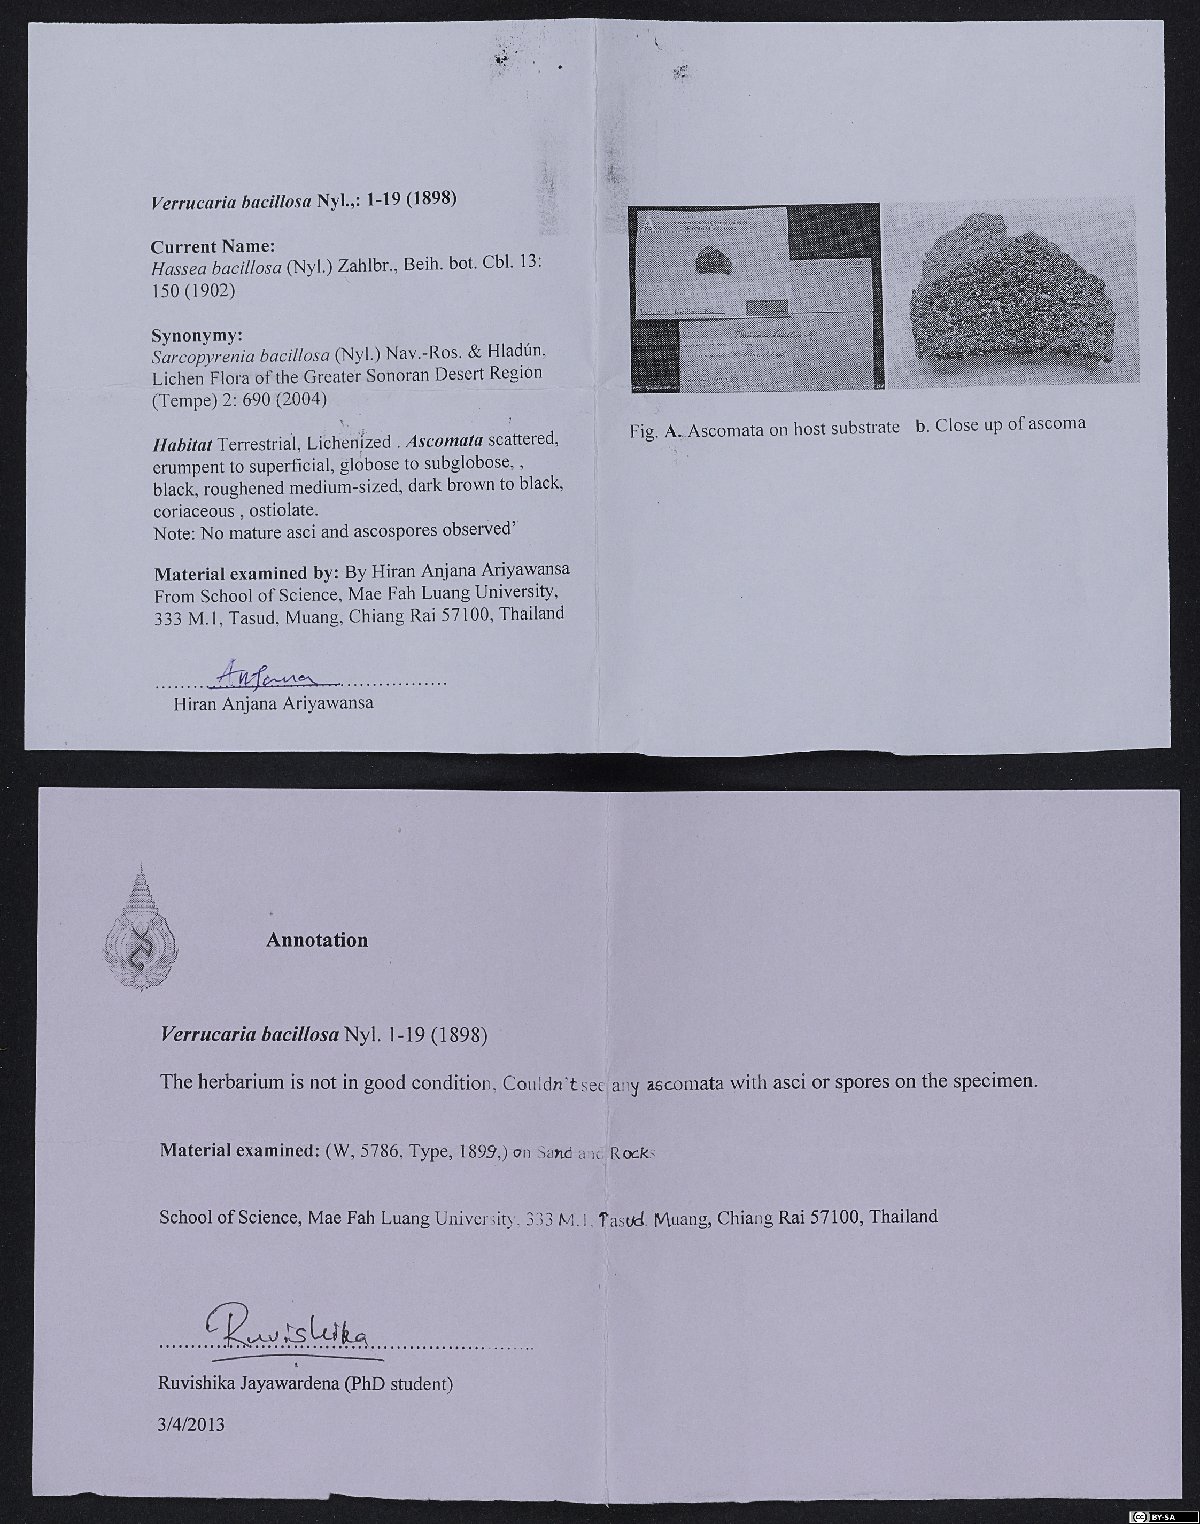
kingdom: Fungi
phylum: Ascomycota
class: Sordariomycetes
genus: Sarcopyrenia
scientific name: Sarcopyrenia bacillosa
